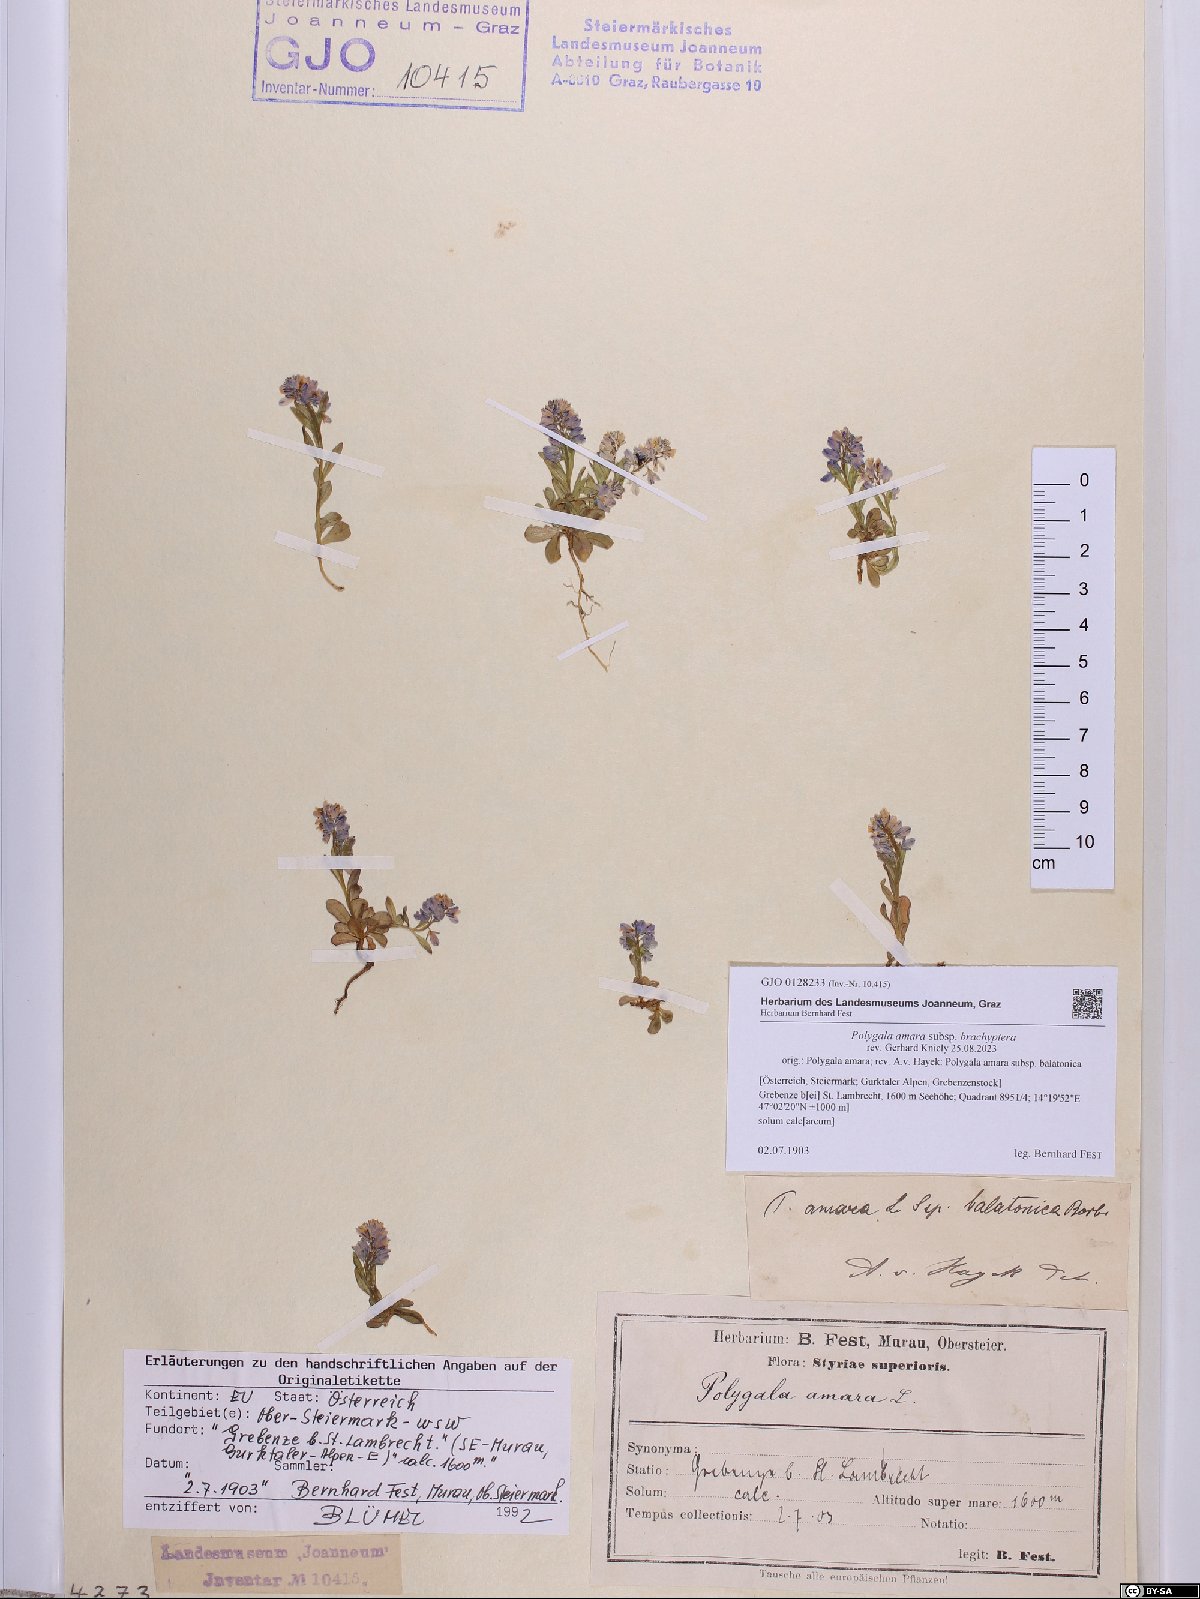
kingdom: Plantae
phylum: Tracheophyta
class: Magnoliopsida
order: Fabales
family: Polygalaceae
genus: Polygala
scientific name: Polygala amara
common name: Milkwort
